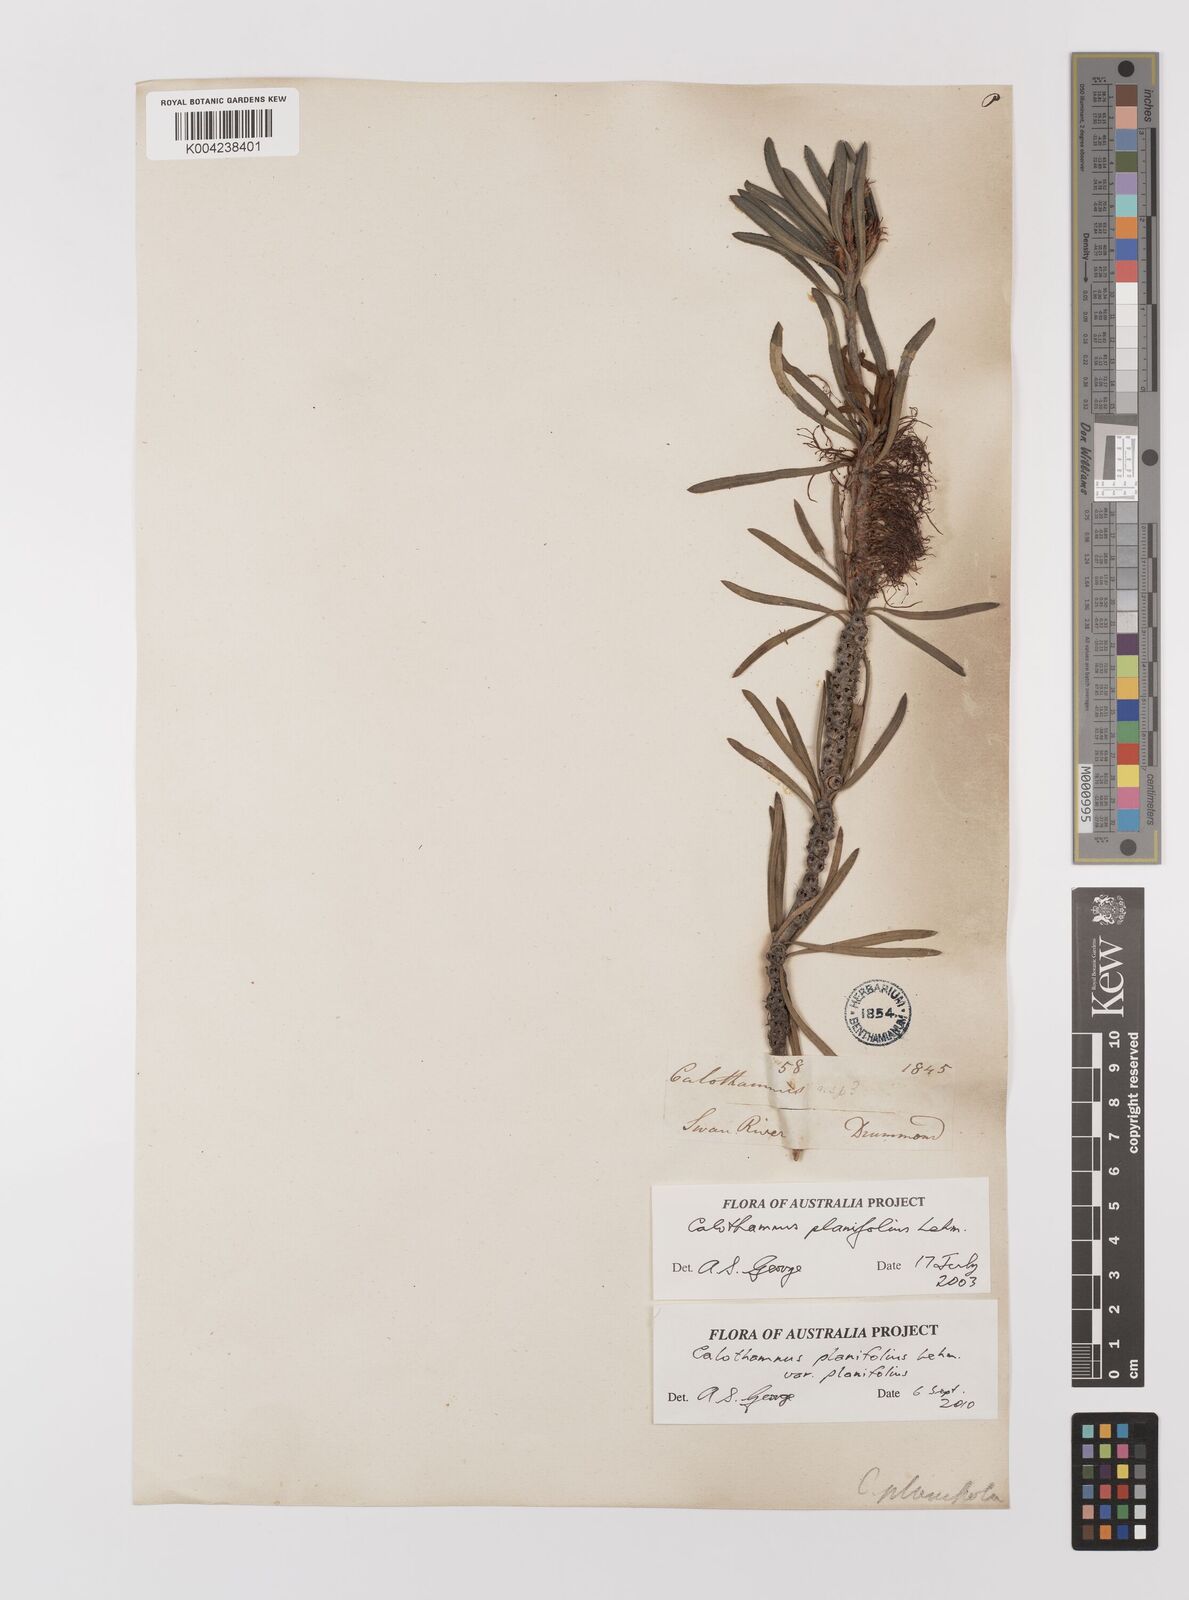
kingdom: Plantae
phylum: Tracheophyta
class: Magnoliopsida
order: Myrtales
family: Myrtaceae
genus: Melaleuca
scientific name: Melaleuca planifolia
